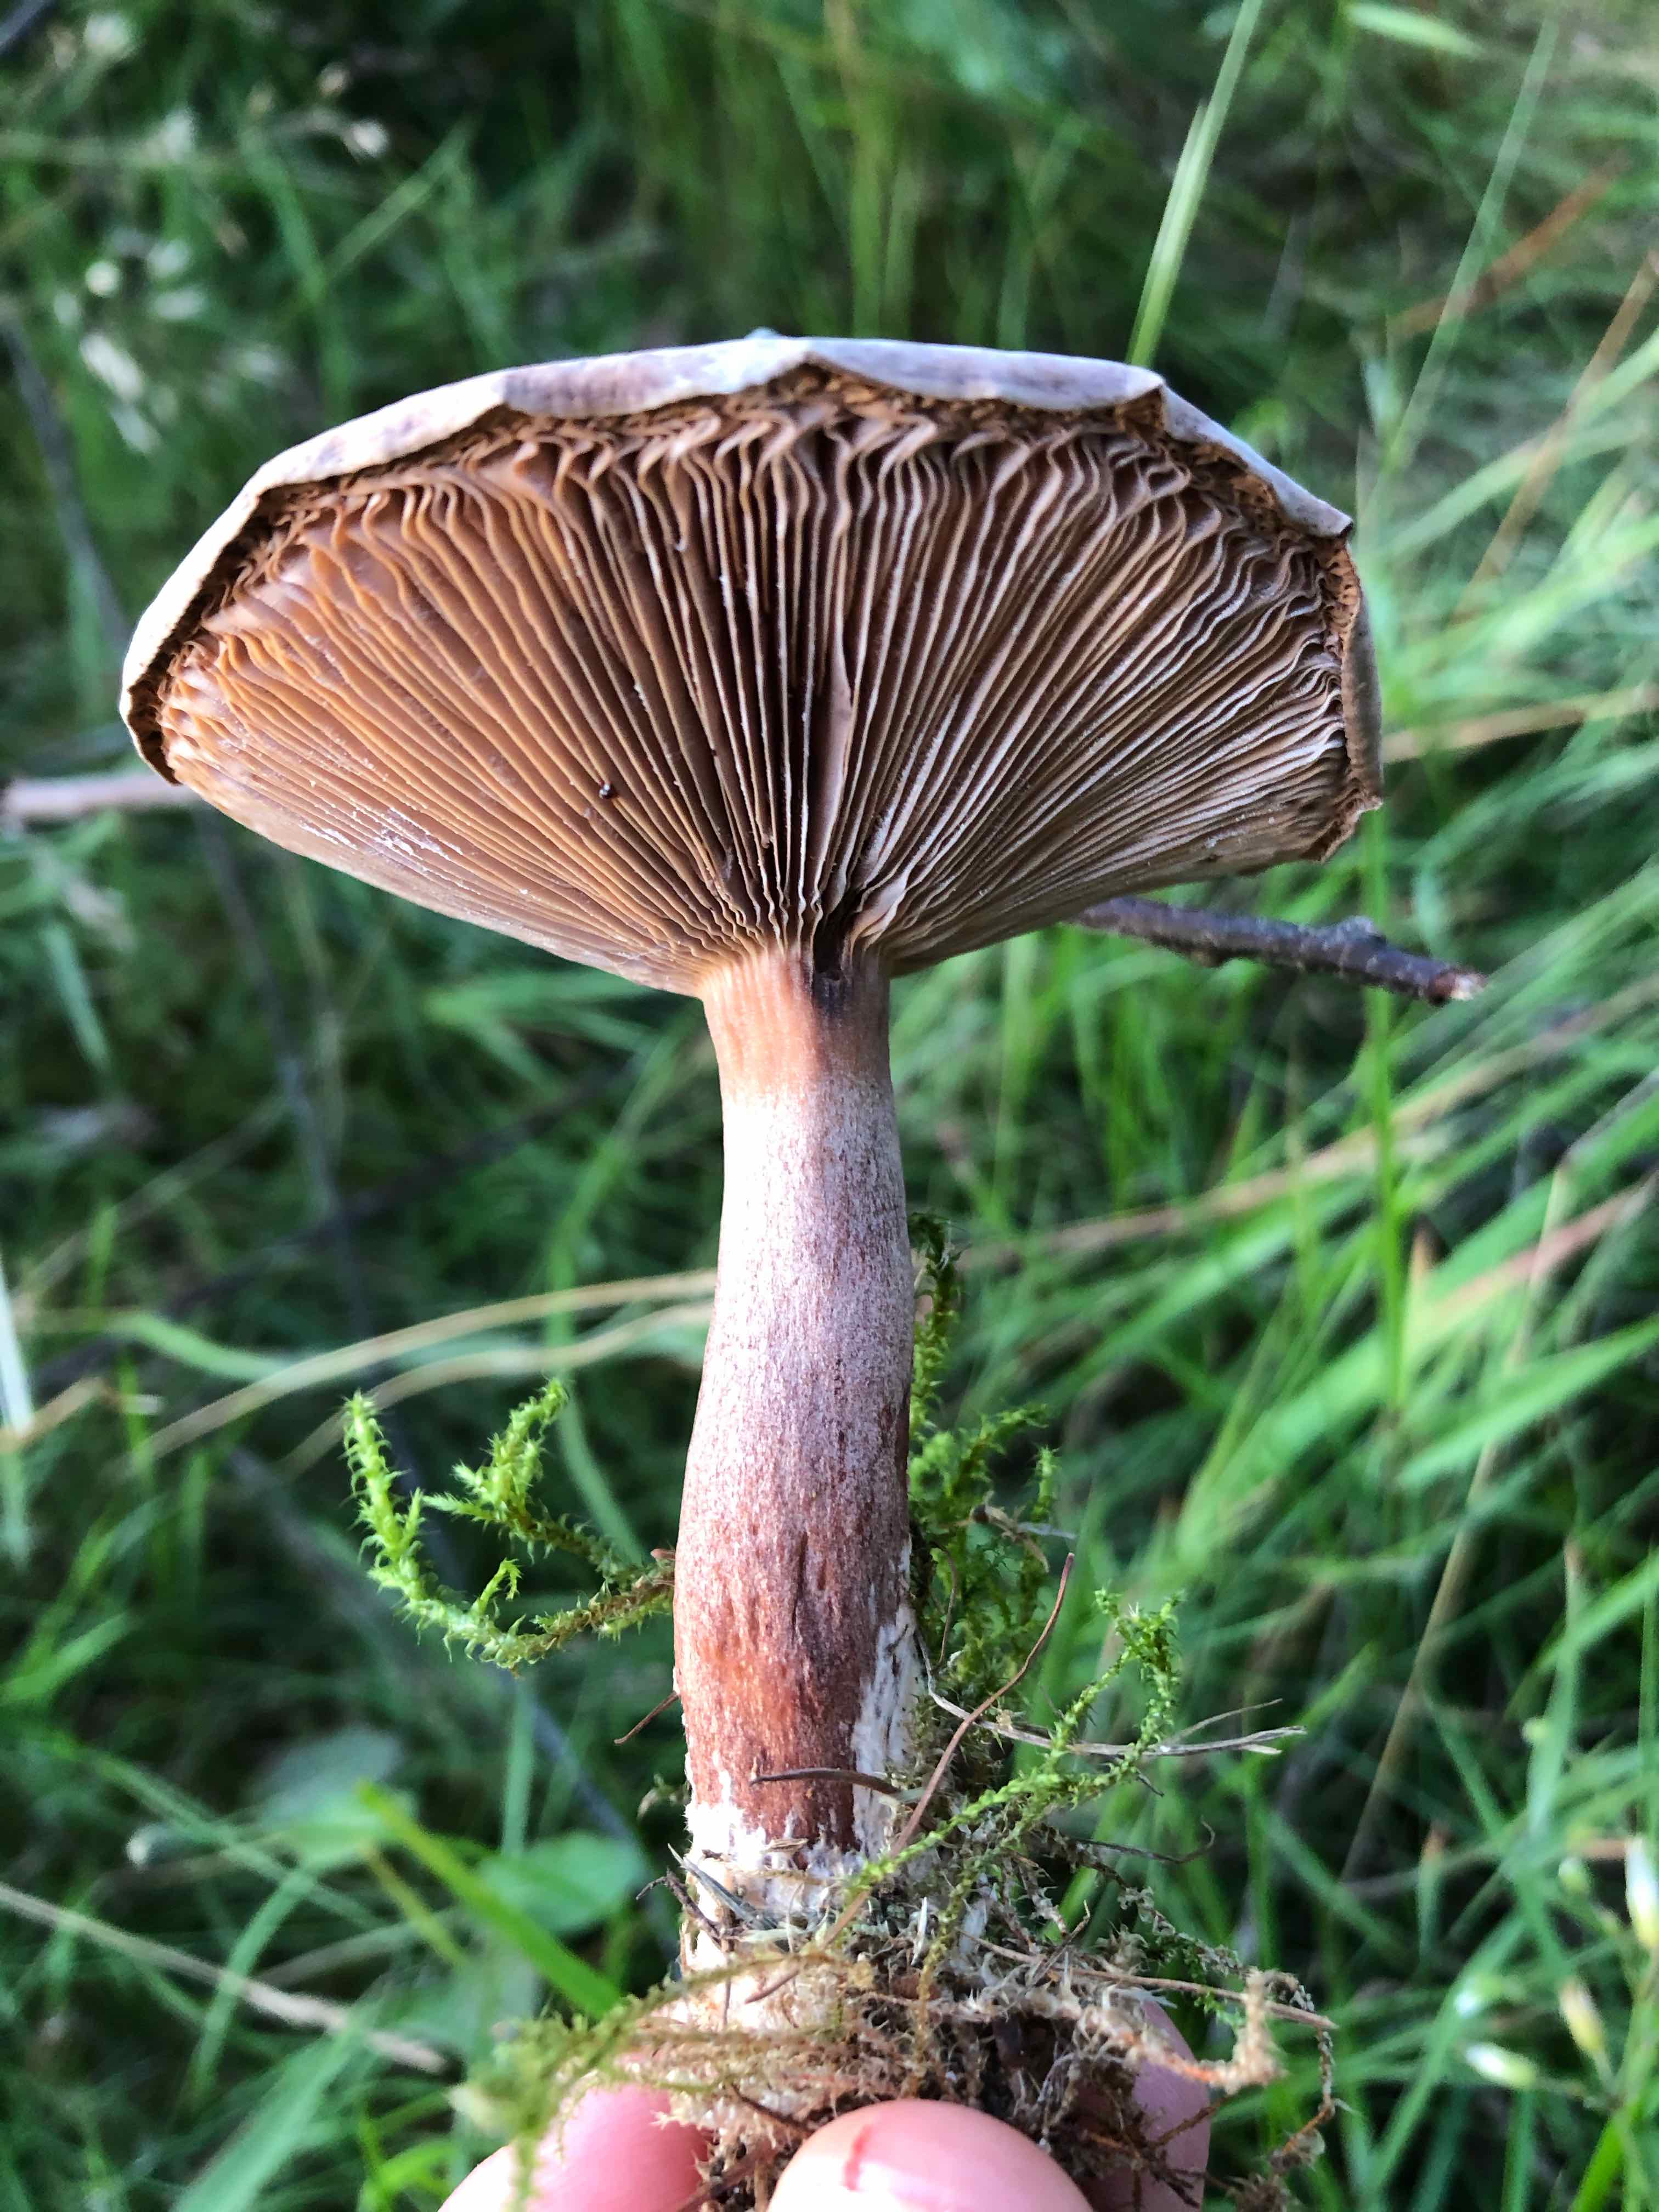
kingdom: Fungi
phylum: Basidiomycota
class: Agaricomycetes
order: Russulales
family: Russulaceae
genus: Lactarius
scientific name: Lactarius
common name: mælkehat
